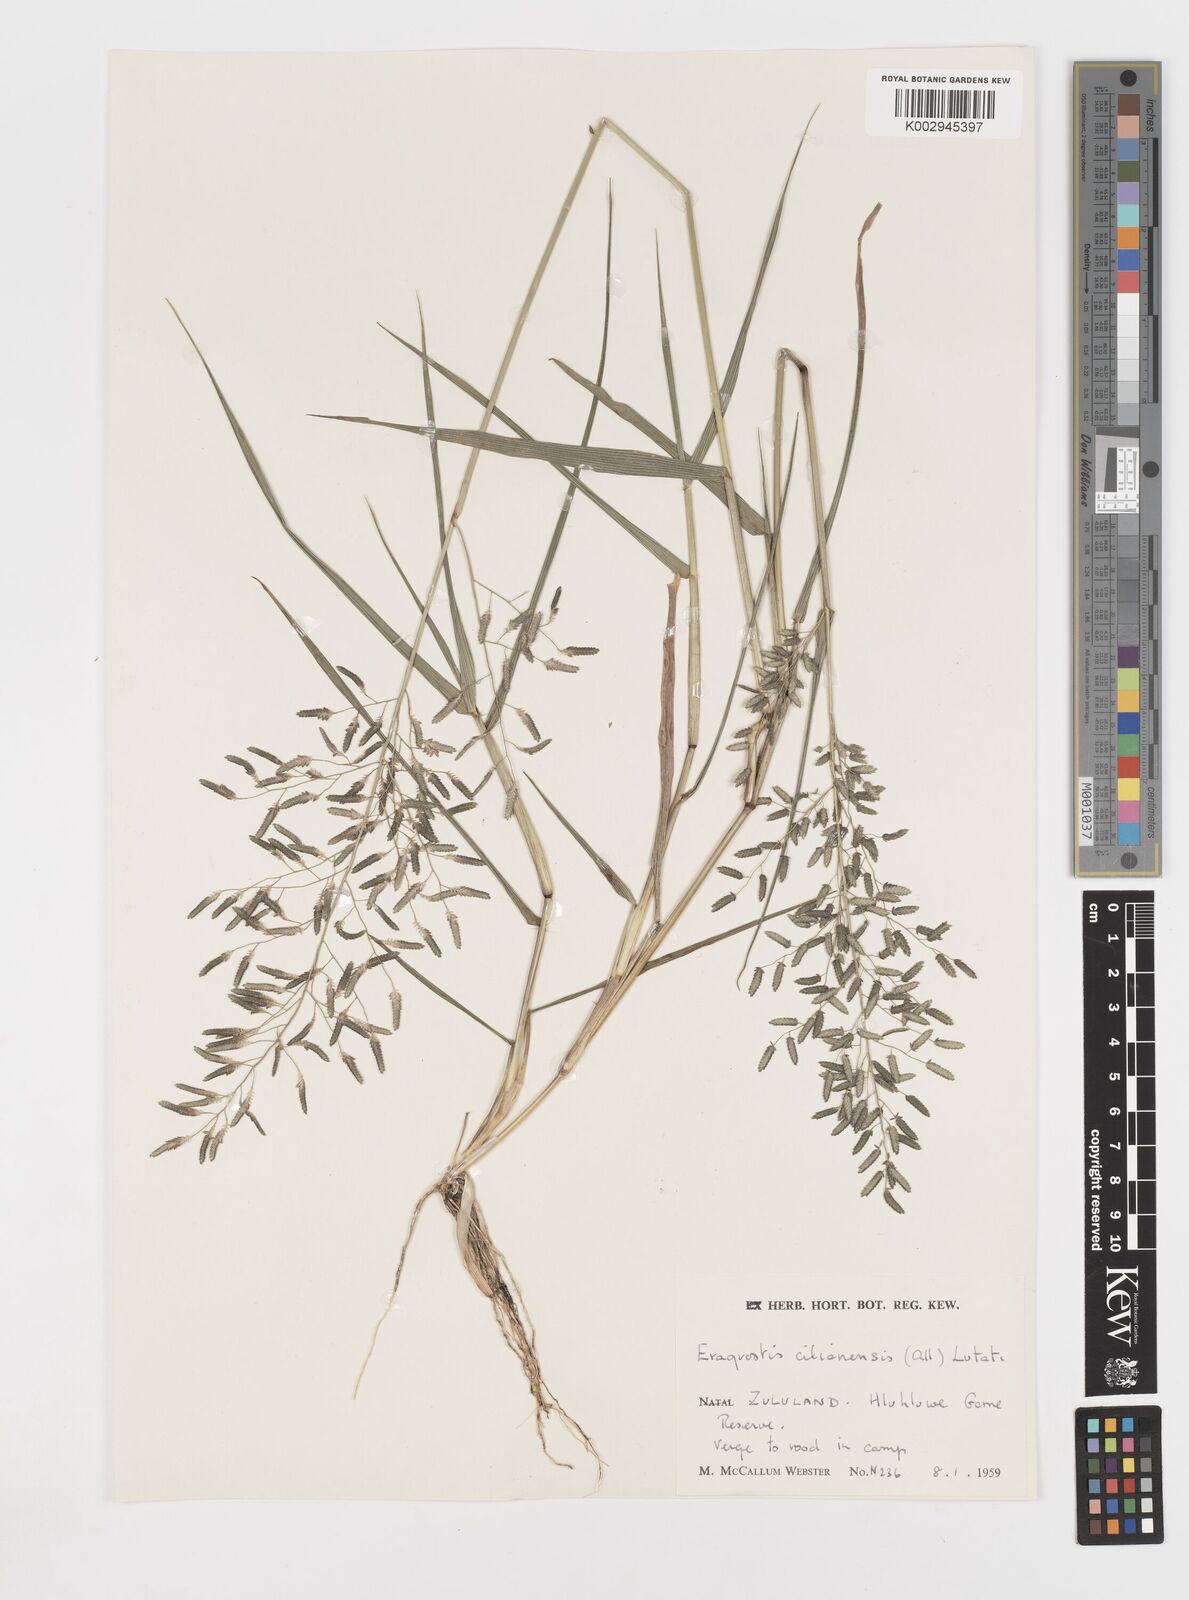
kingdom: Plantae
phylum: Tracheophyta
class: Liliopsida
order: Poales
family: Poaceae
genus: Eragrostis
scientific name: Eragrostis cilianensis
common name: Stinkgrass
